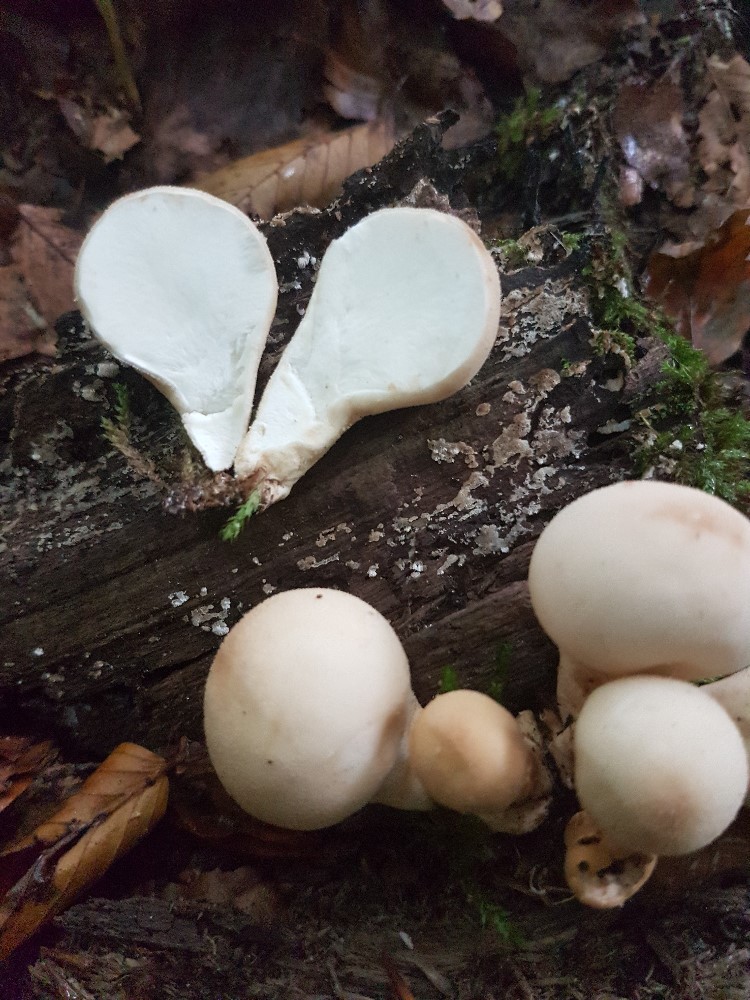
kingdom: Fungi
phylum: Basidiomycota
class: Agaricomycetes
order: Agaricales
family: Lycoperdaceae
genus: Apioperdon
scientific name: Apioperdon pyriforme
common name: pære-støvbold
